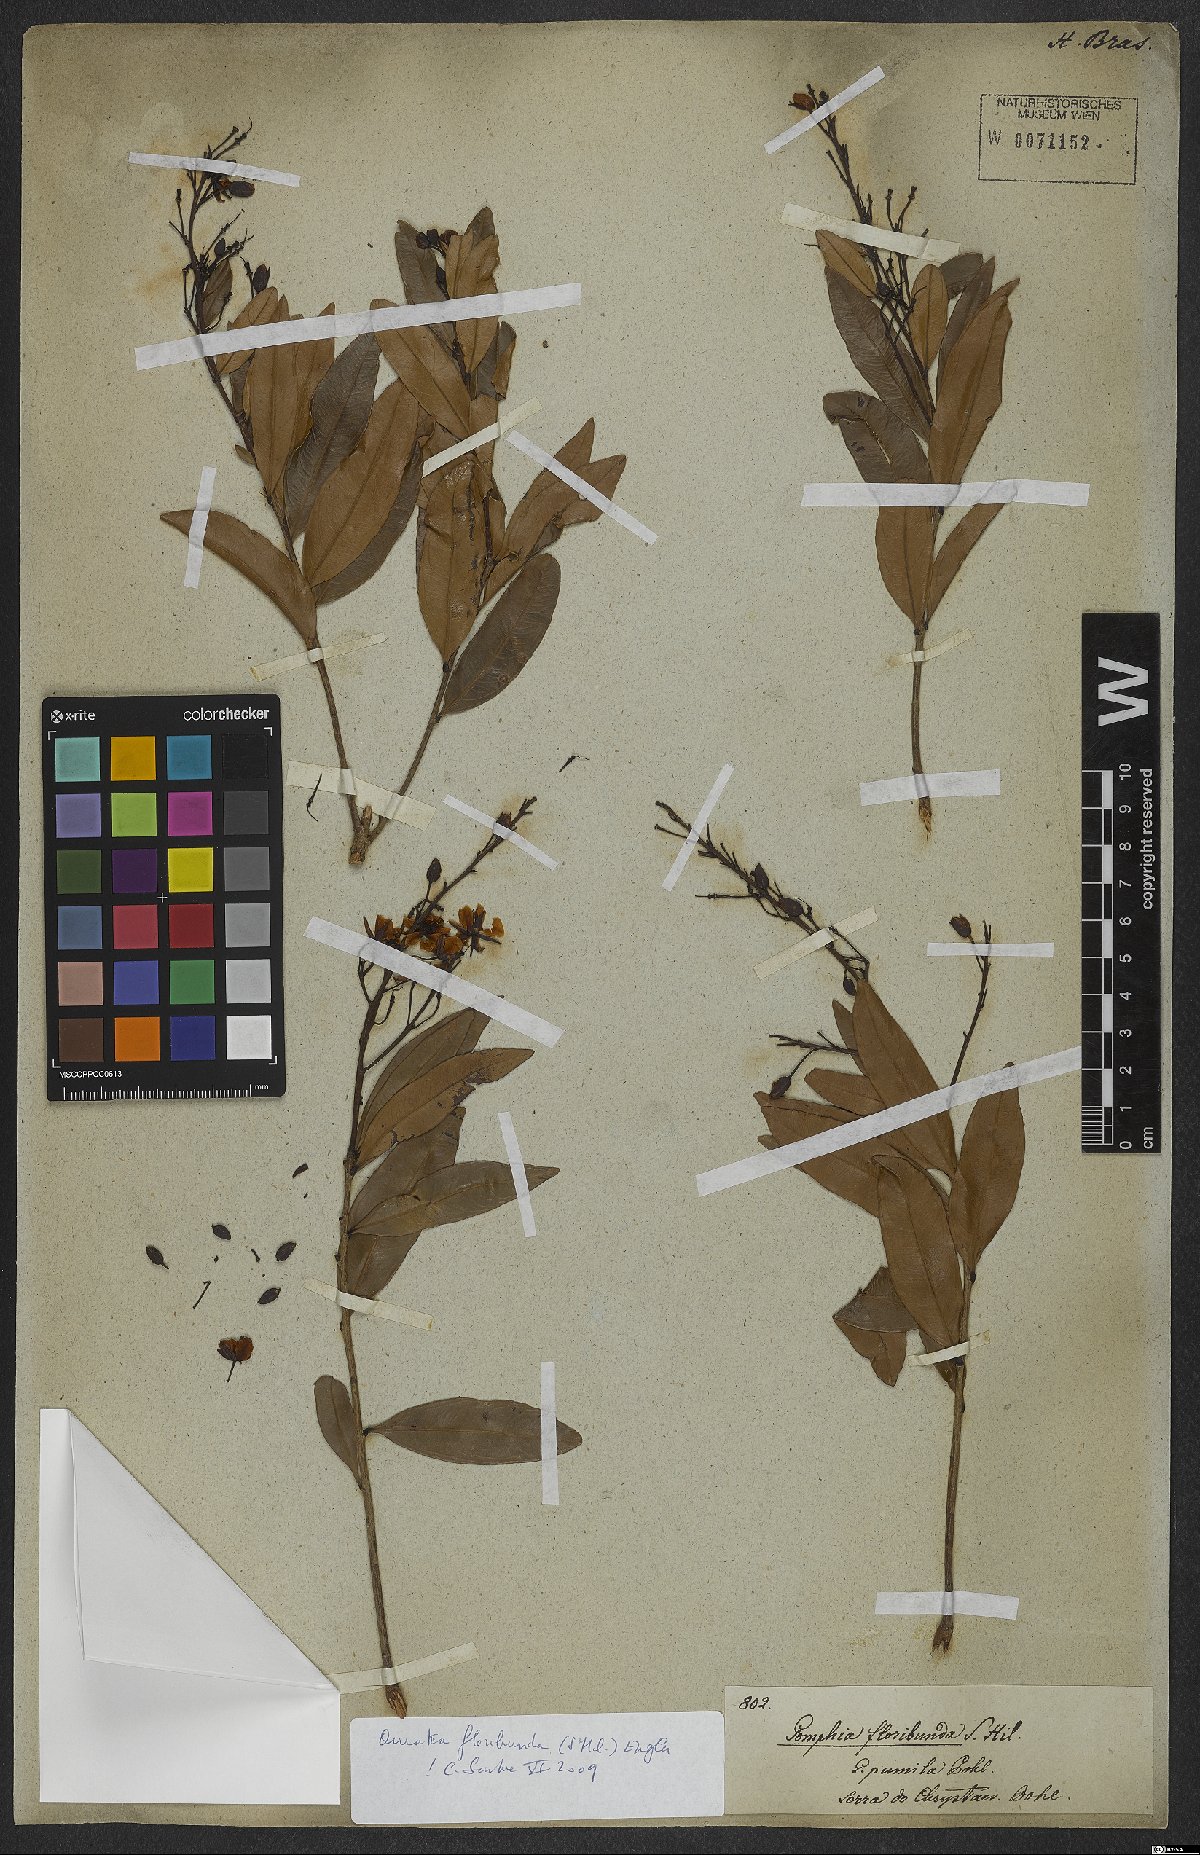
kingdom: Plantae
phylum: Tracheophyta
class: Magnoliopsida
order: Malpighiales
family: Ochnaceae
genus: Campylospermum
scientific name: Campylospermum bukobense
